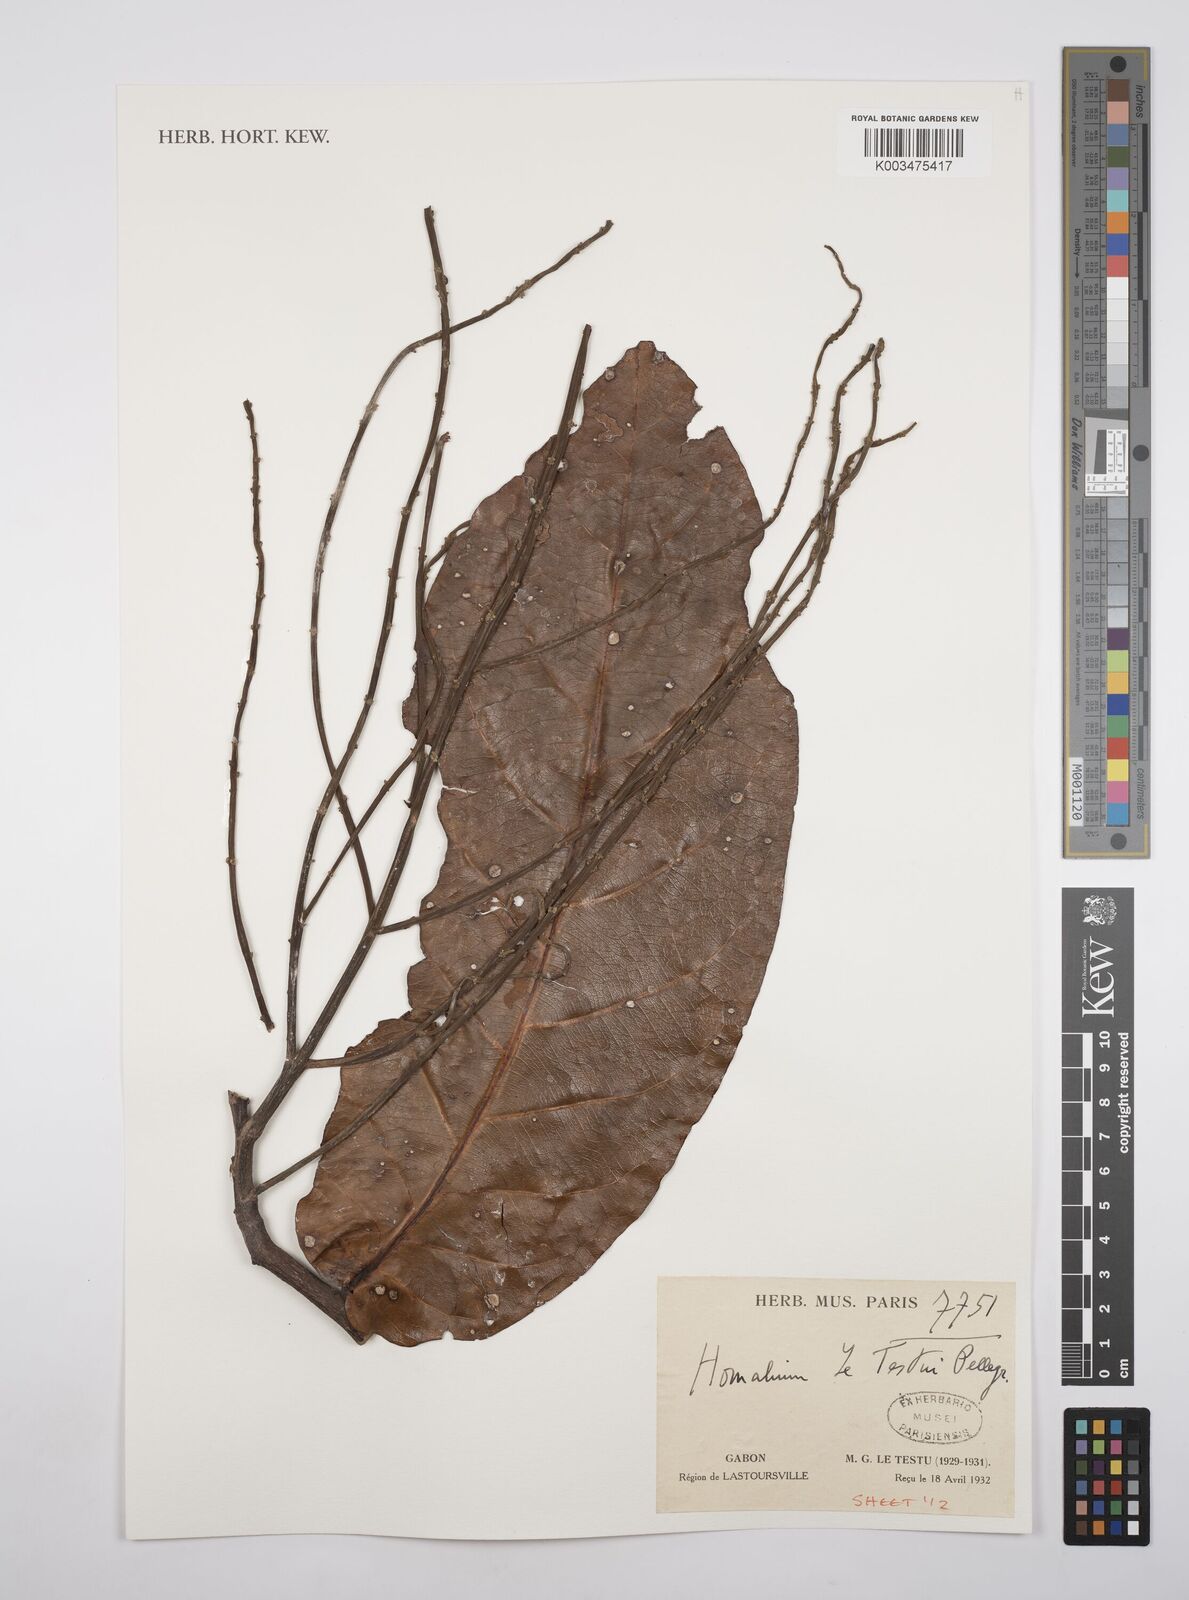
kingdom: Plantae
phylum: Tracheophyta
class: Magnoliopsida
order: Malpighiales
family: Salicaceae
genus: Homalium
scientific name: Homalium letestui
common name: African homalium
